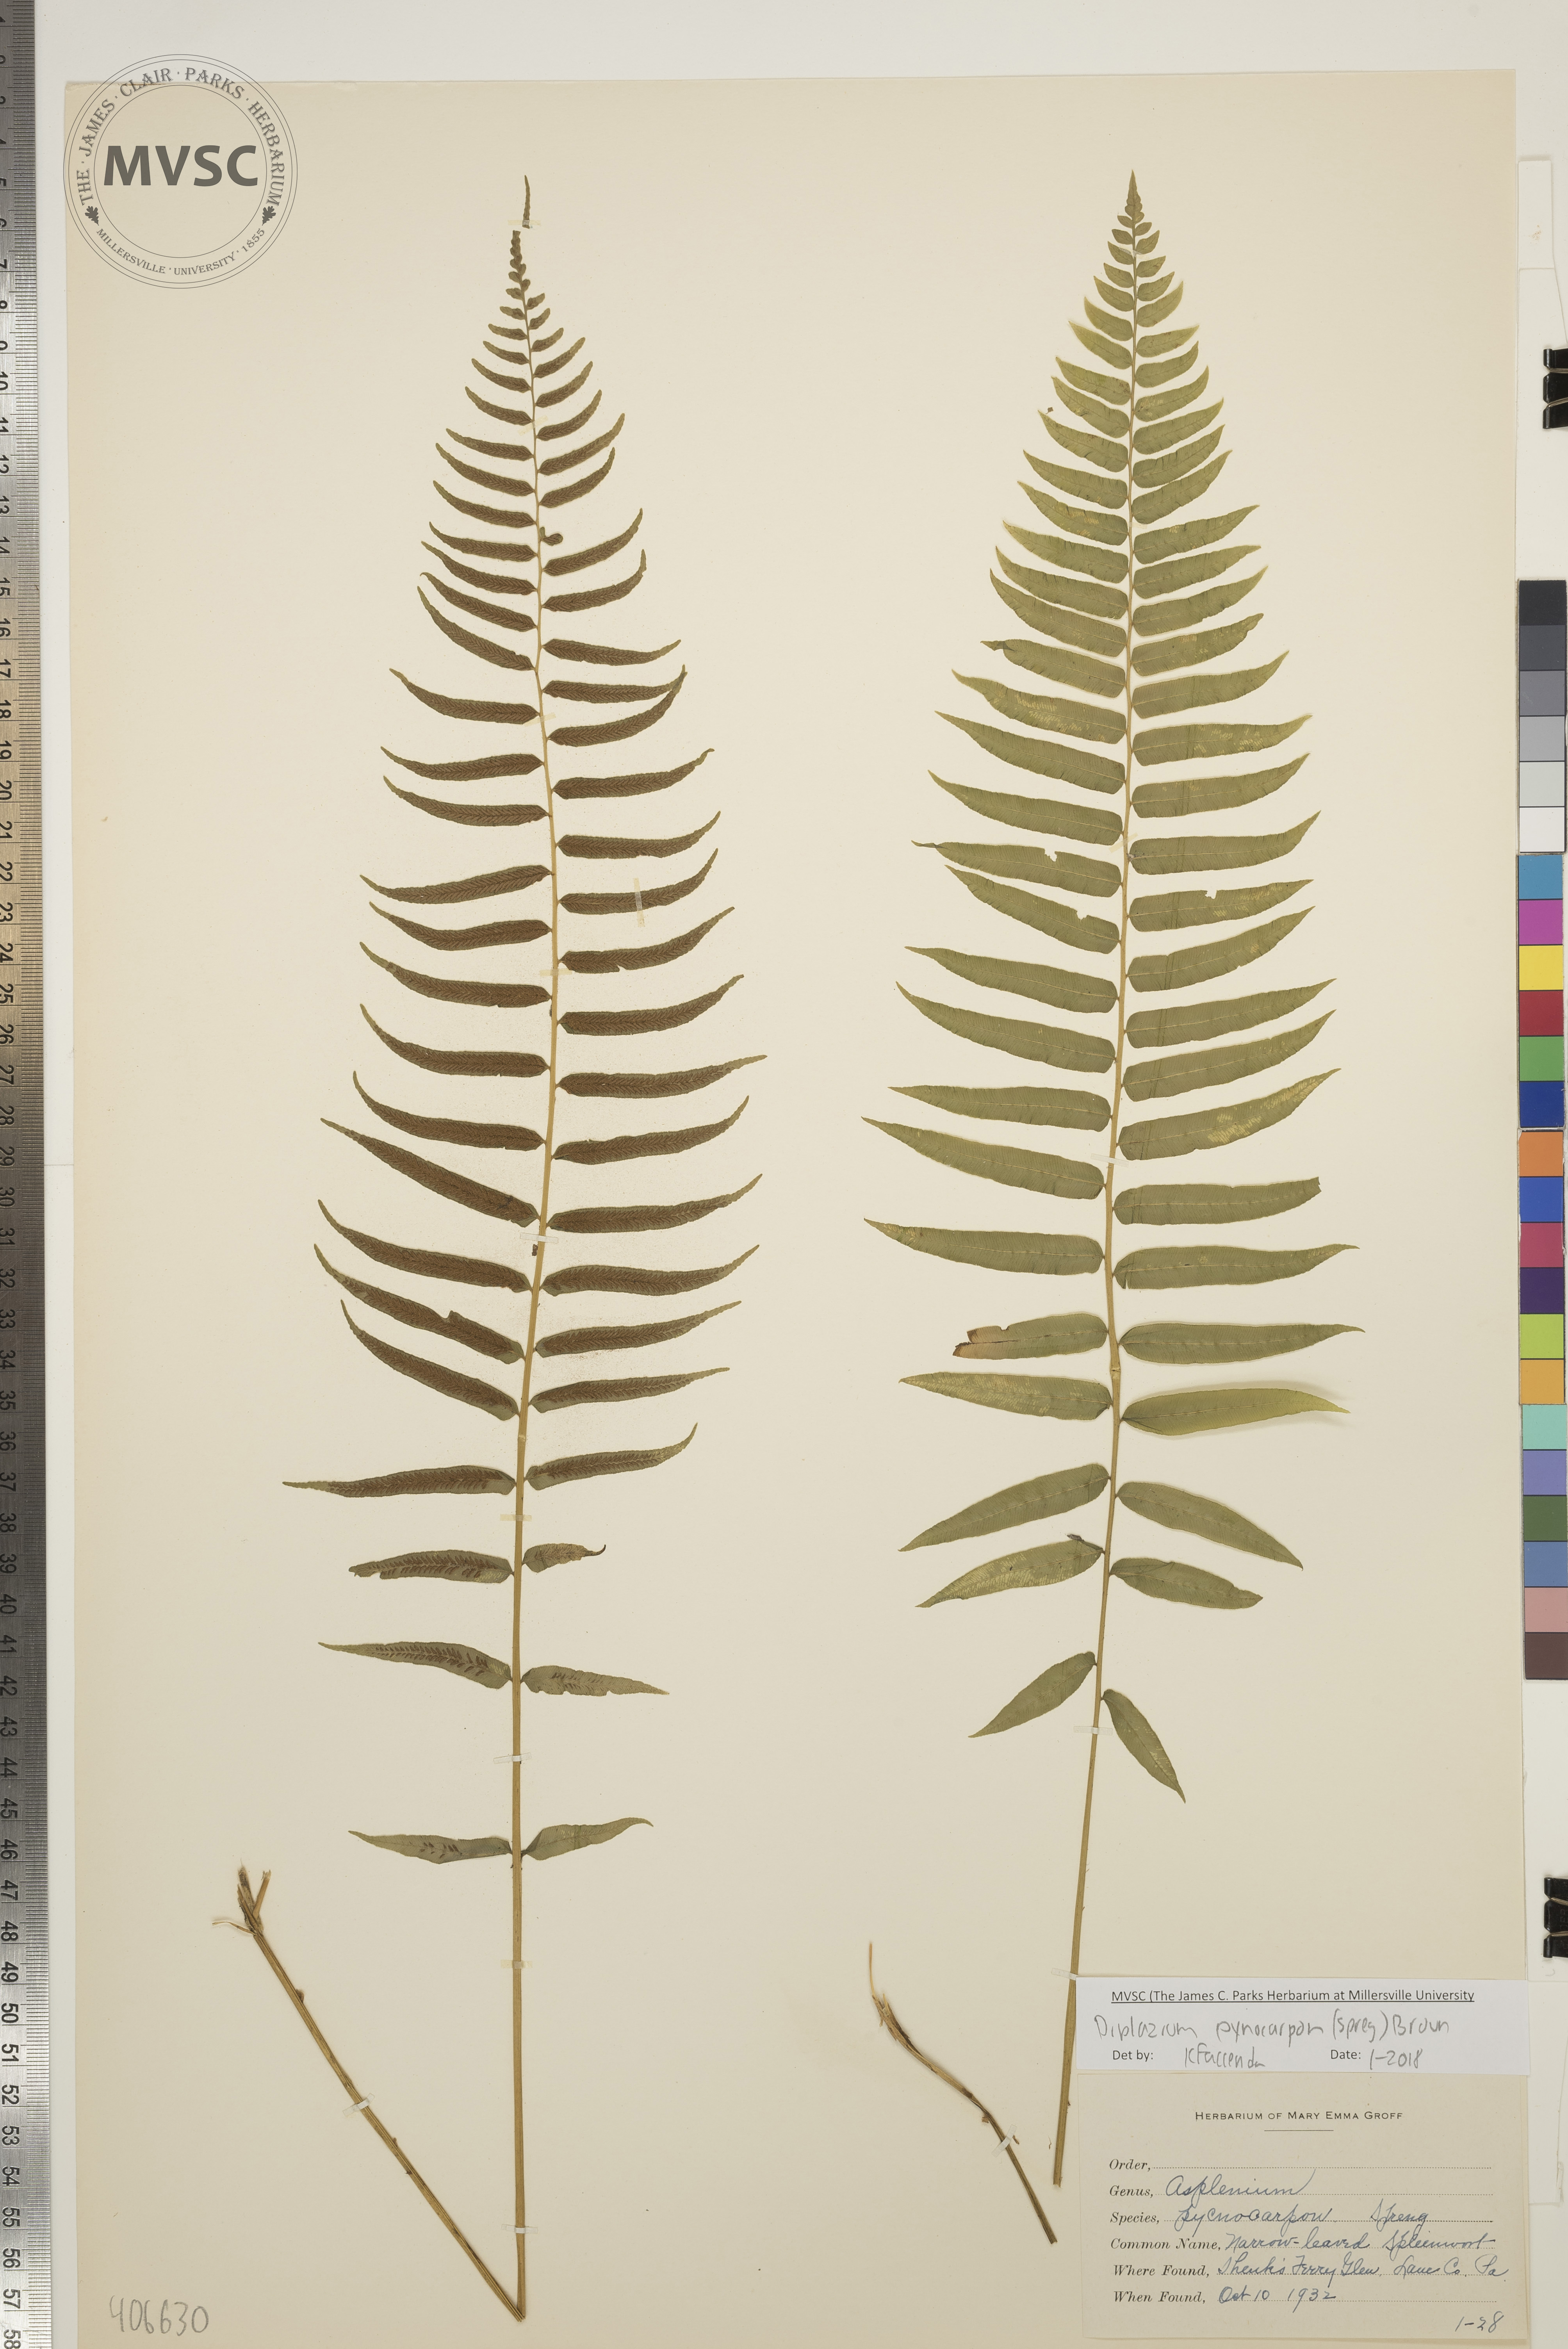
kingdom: Plantae
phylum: Tracheophyta
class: Polypodiopsida
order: Polypodiales
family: Diplaziopsidaceae
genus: Homalosorus
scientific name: Homalosorus pycnocarpos
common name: Narrow-leaved Spleenwort
